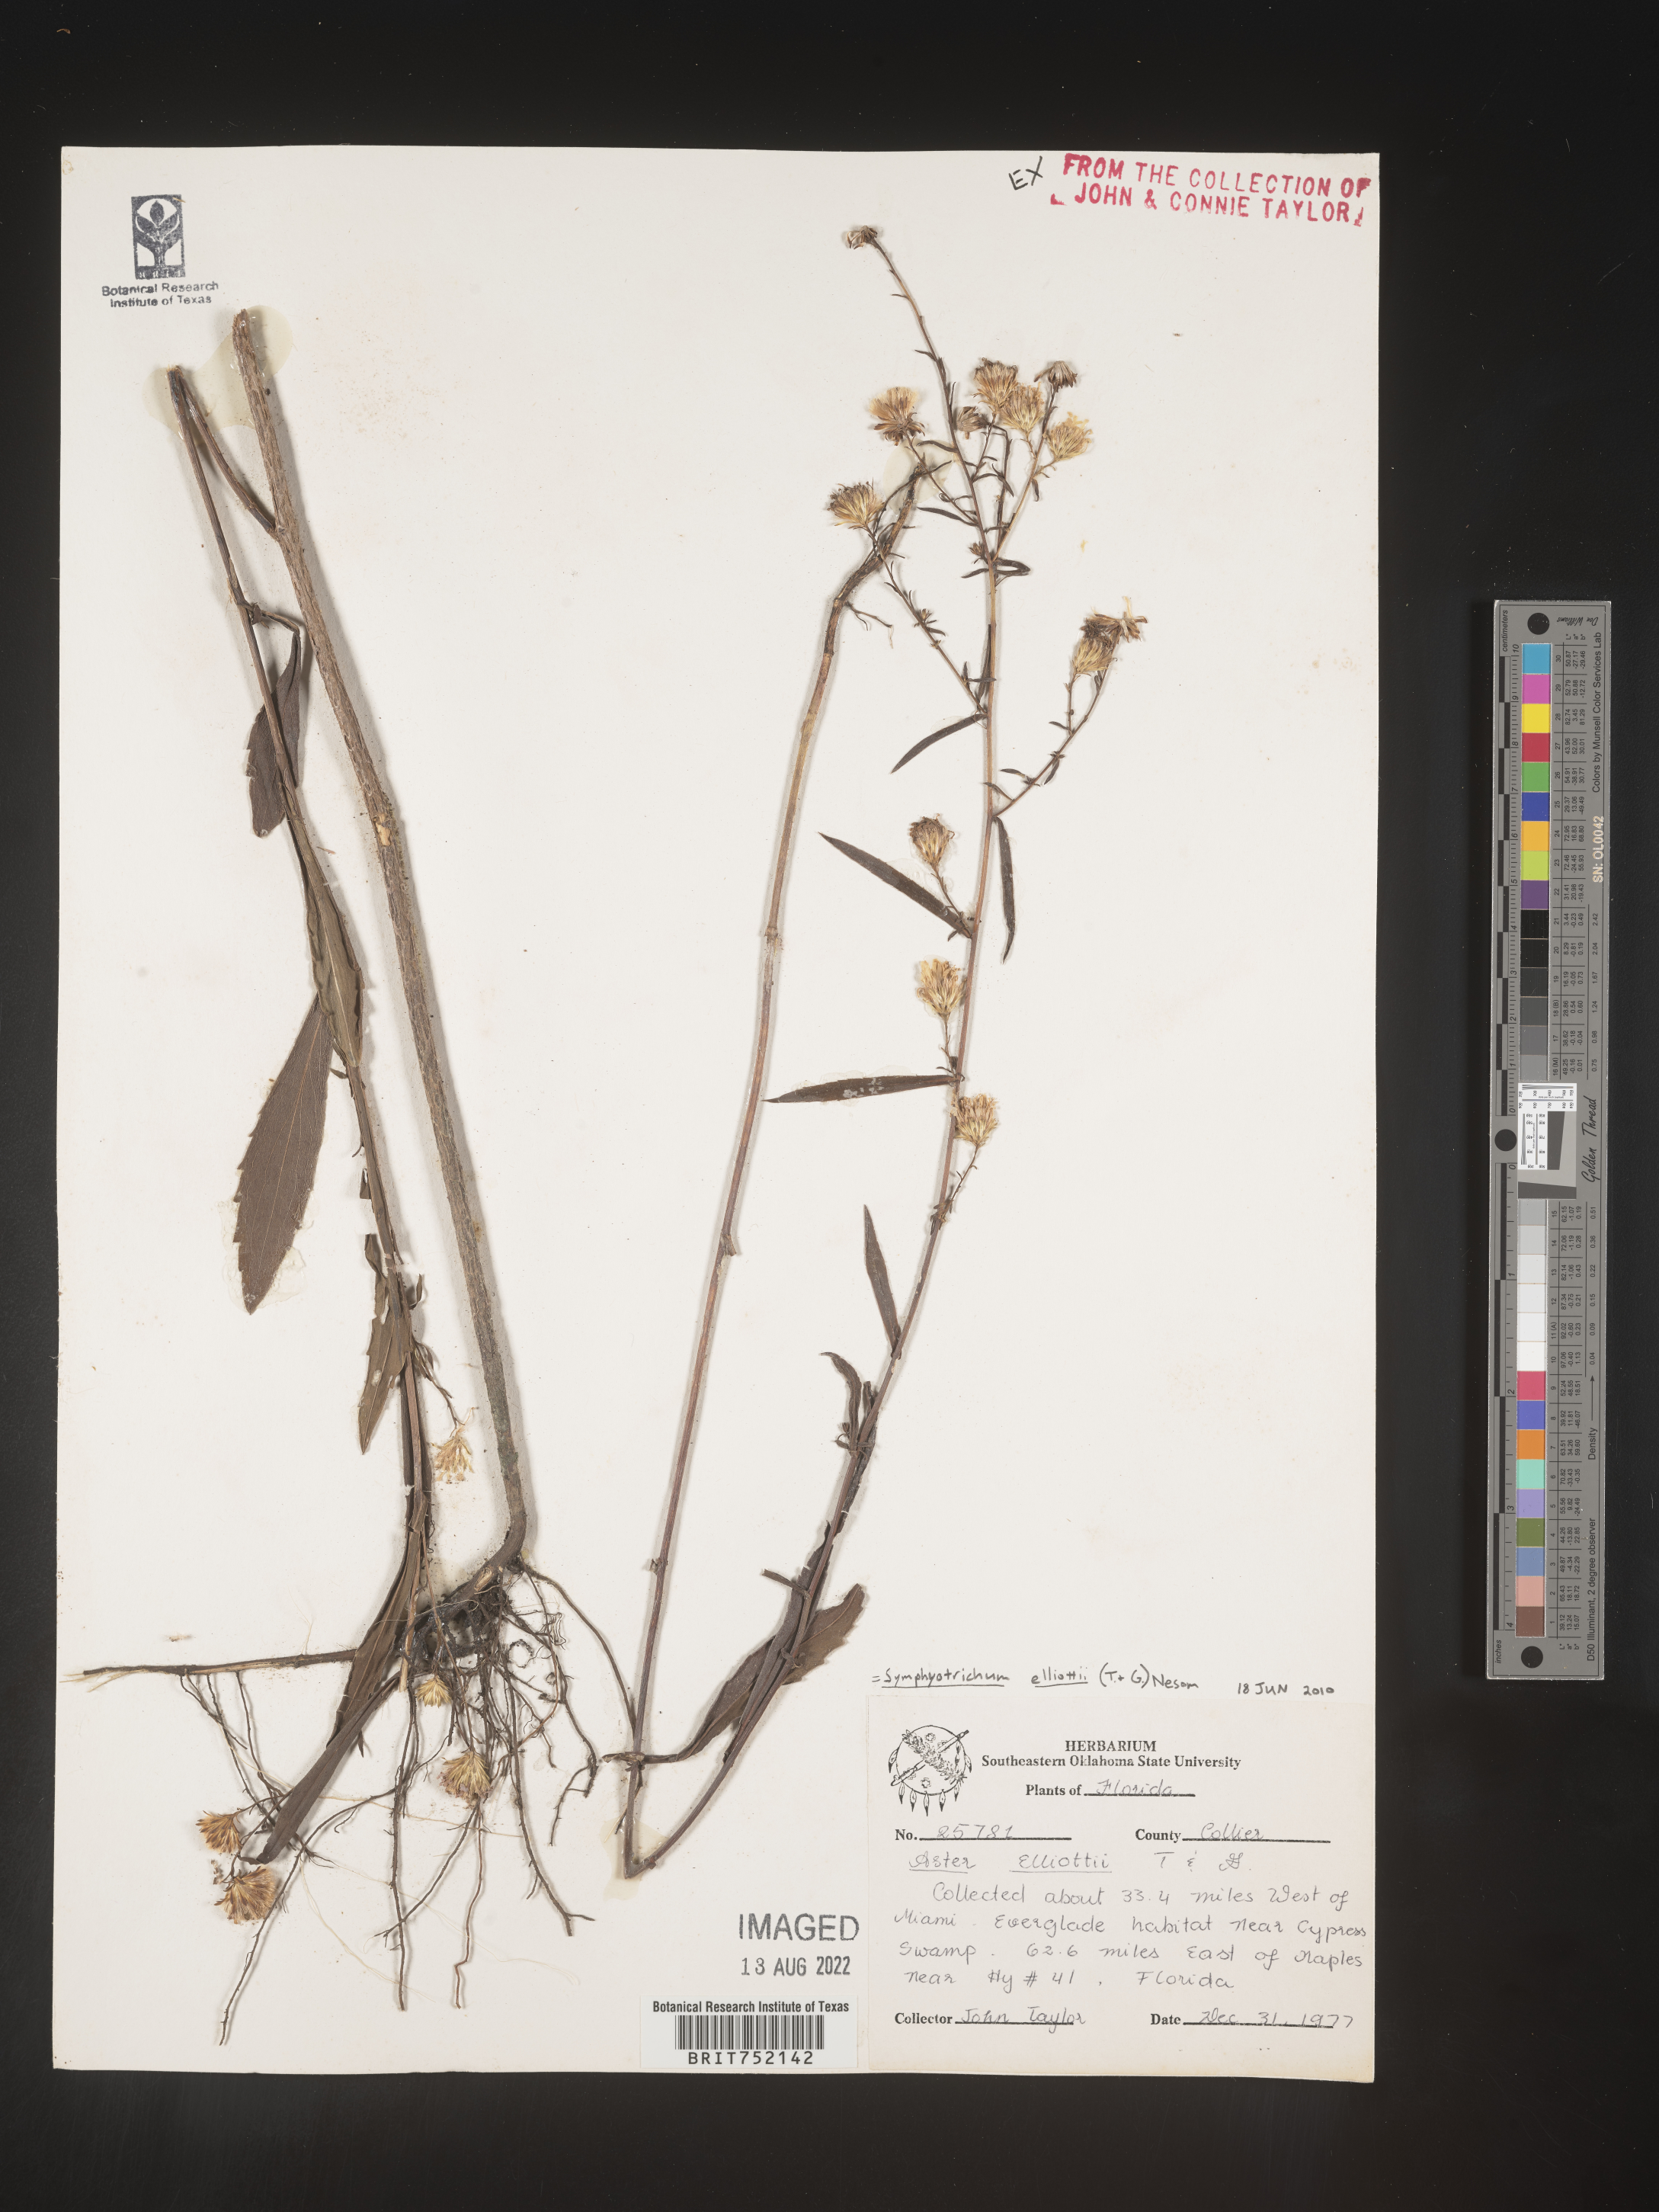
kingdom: Plantae
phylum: Tracheophyta
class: Magnoliopsida
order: Asterales
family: Asteraceae
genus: Symphyotrichum
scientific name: Symphyotrichum elliottii
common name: Southern swamp aster
